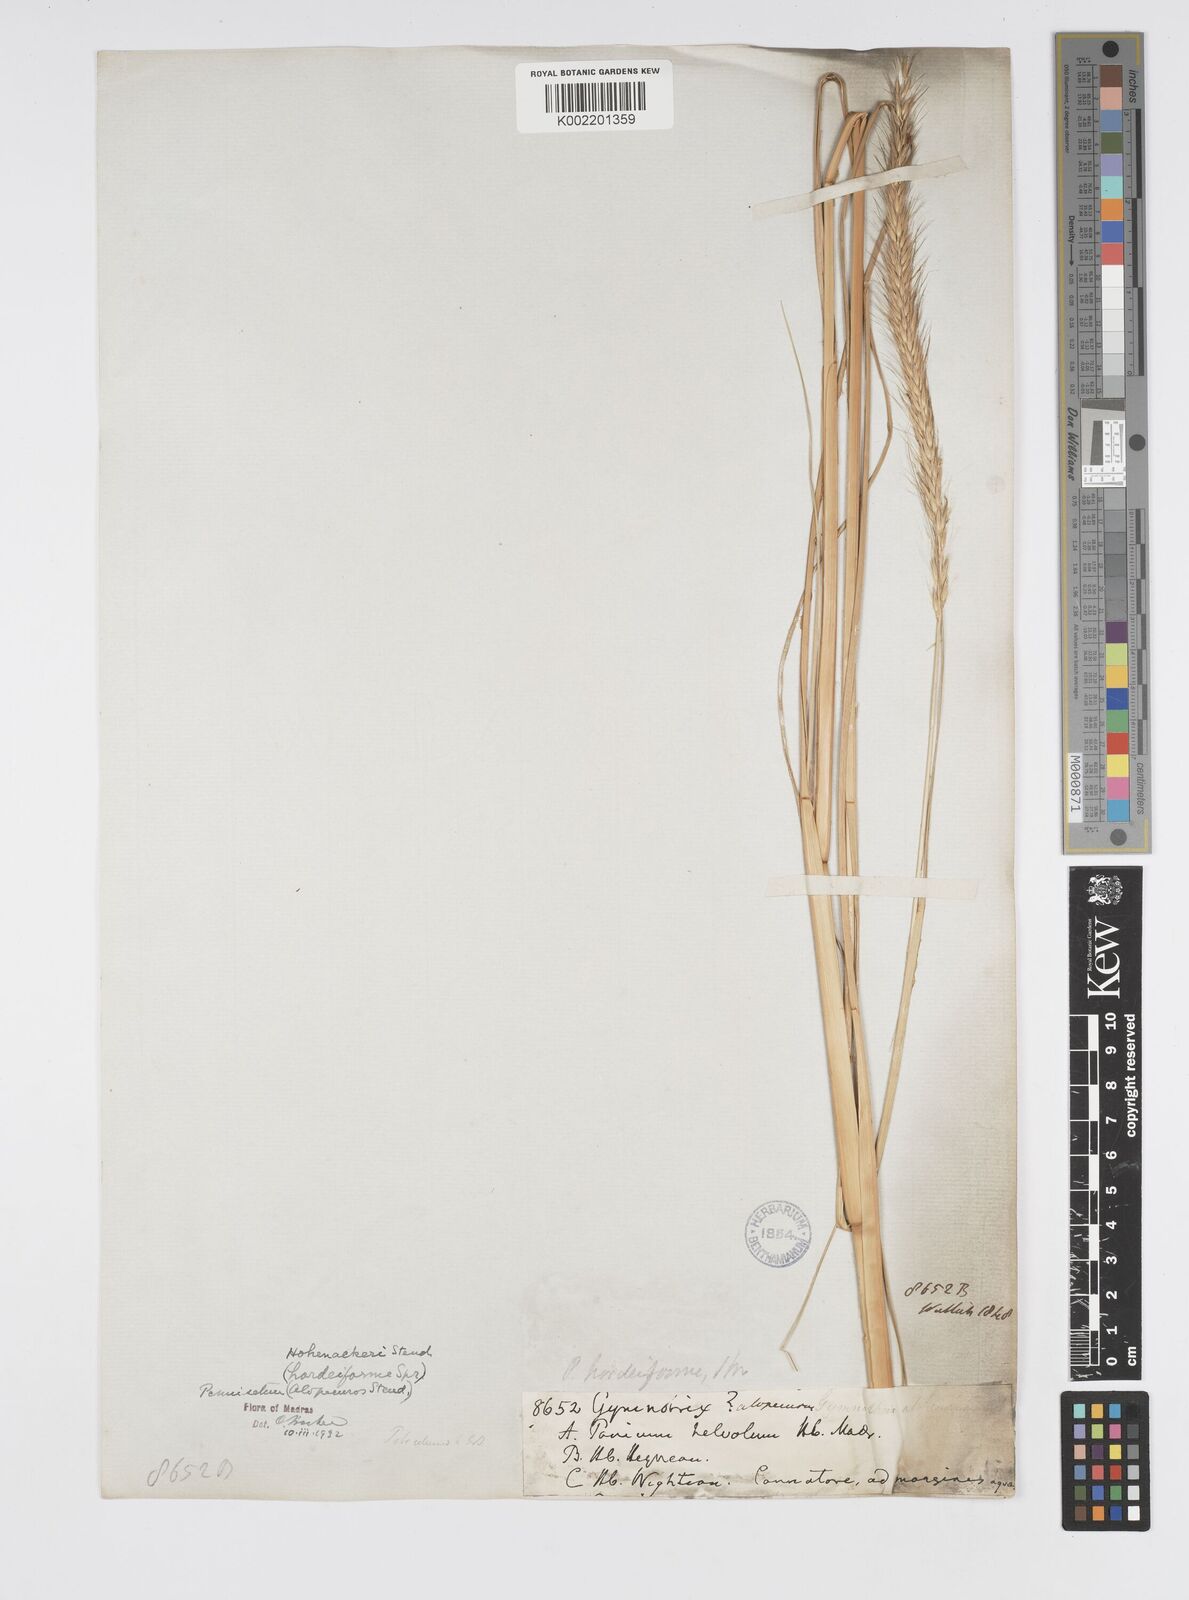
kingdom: Plantae
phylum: Tracheophyta
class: Liliopsida
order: Poales
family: Poaceae
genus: Cenchrus
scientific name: Cenchrus hohenackeri
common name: Moya grass
